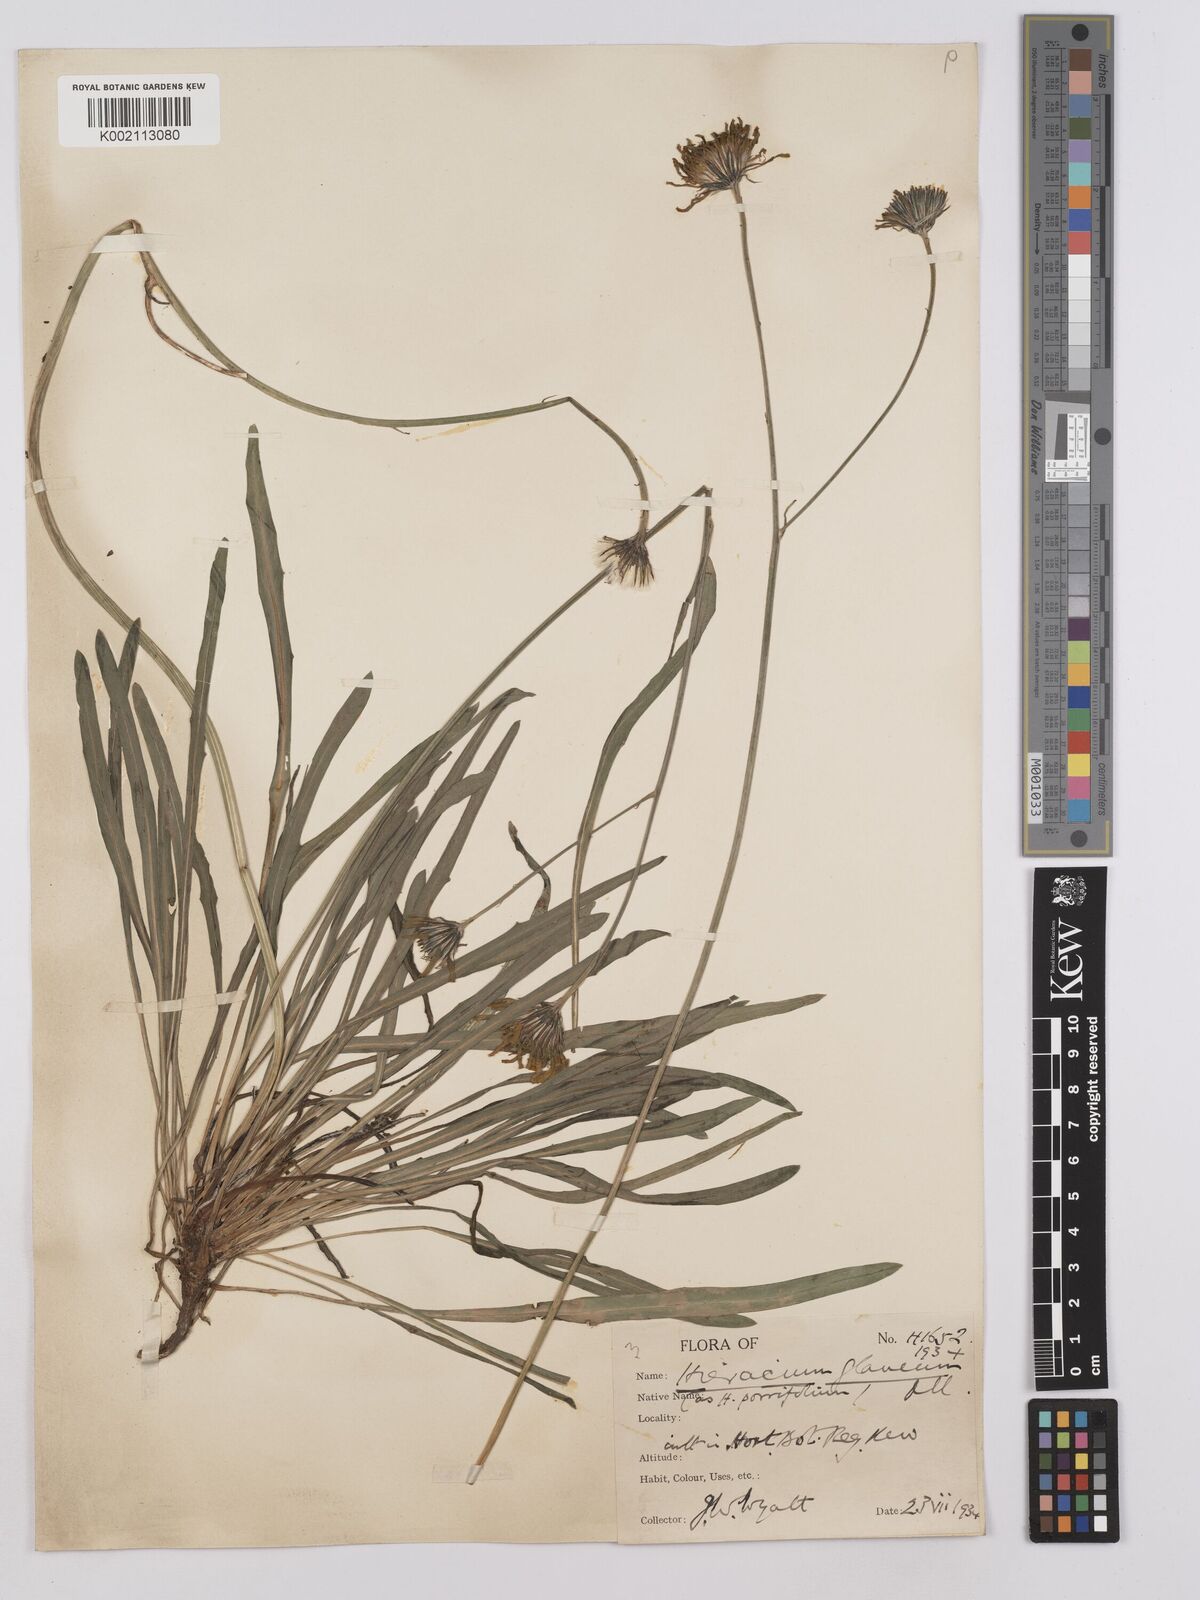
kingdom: Plantae
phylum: Tracheophyta
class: Magnoliopsida
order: Asterales
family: Asteraceae
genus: Hieracium
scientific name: Hieracium
